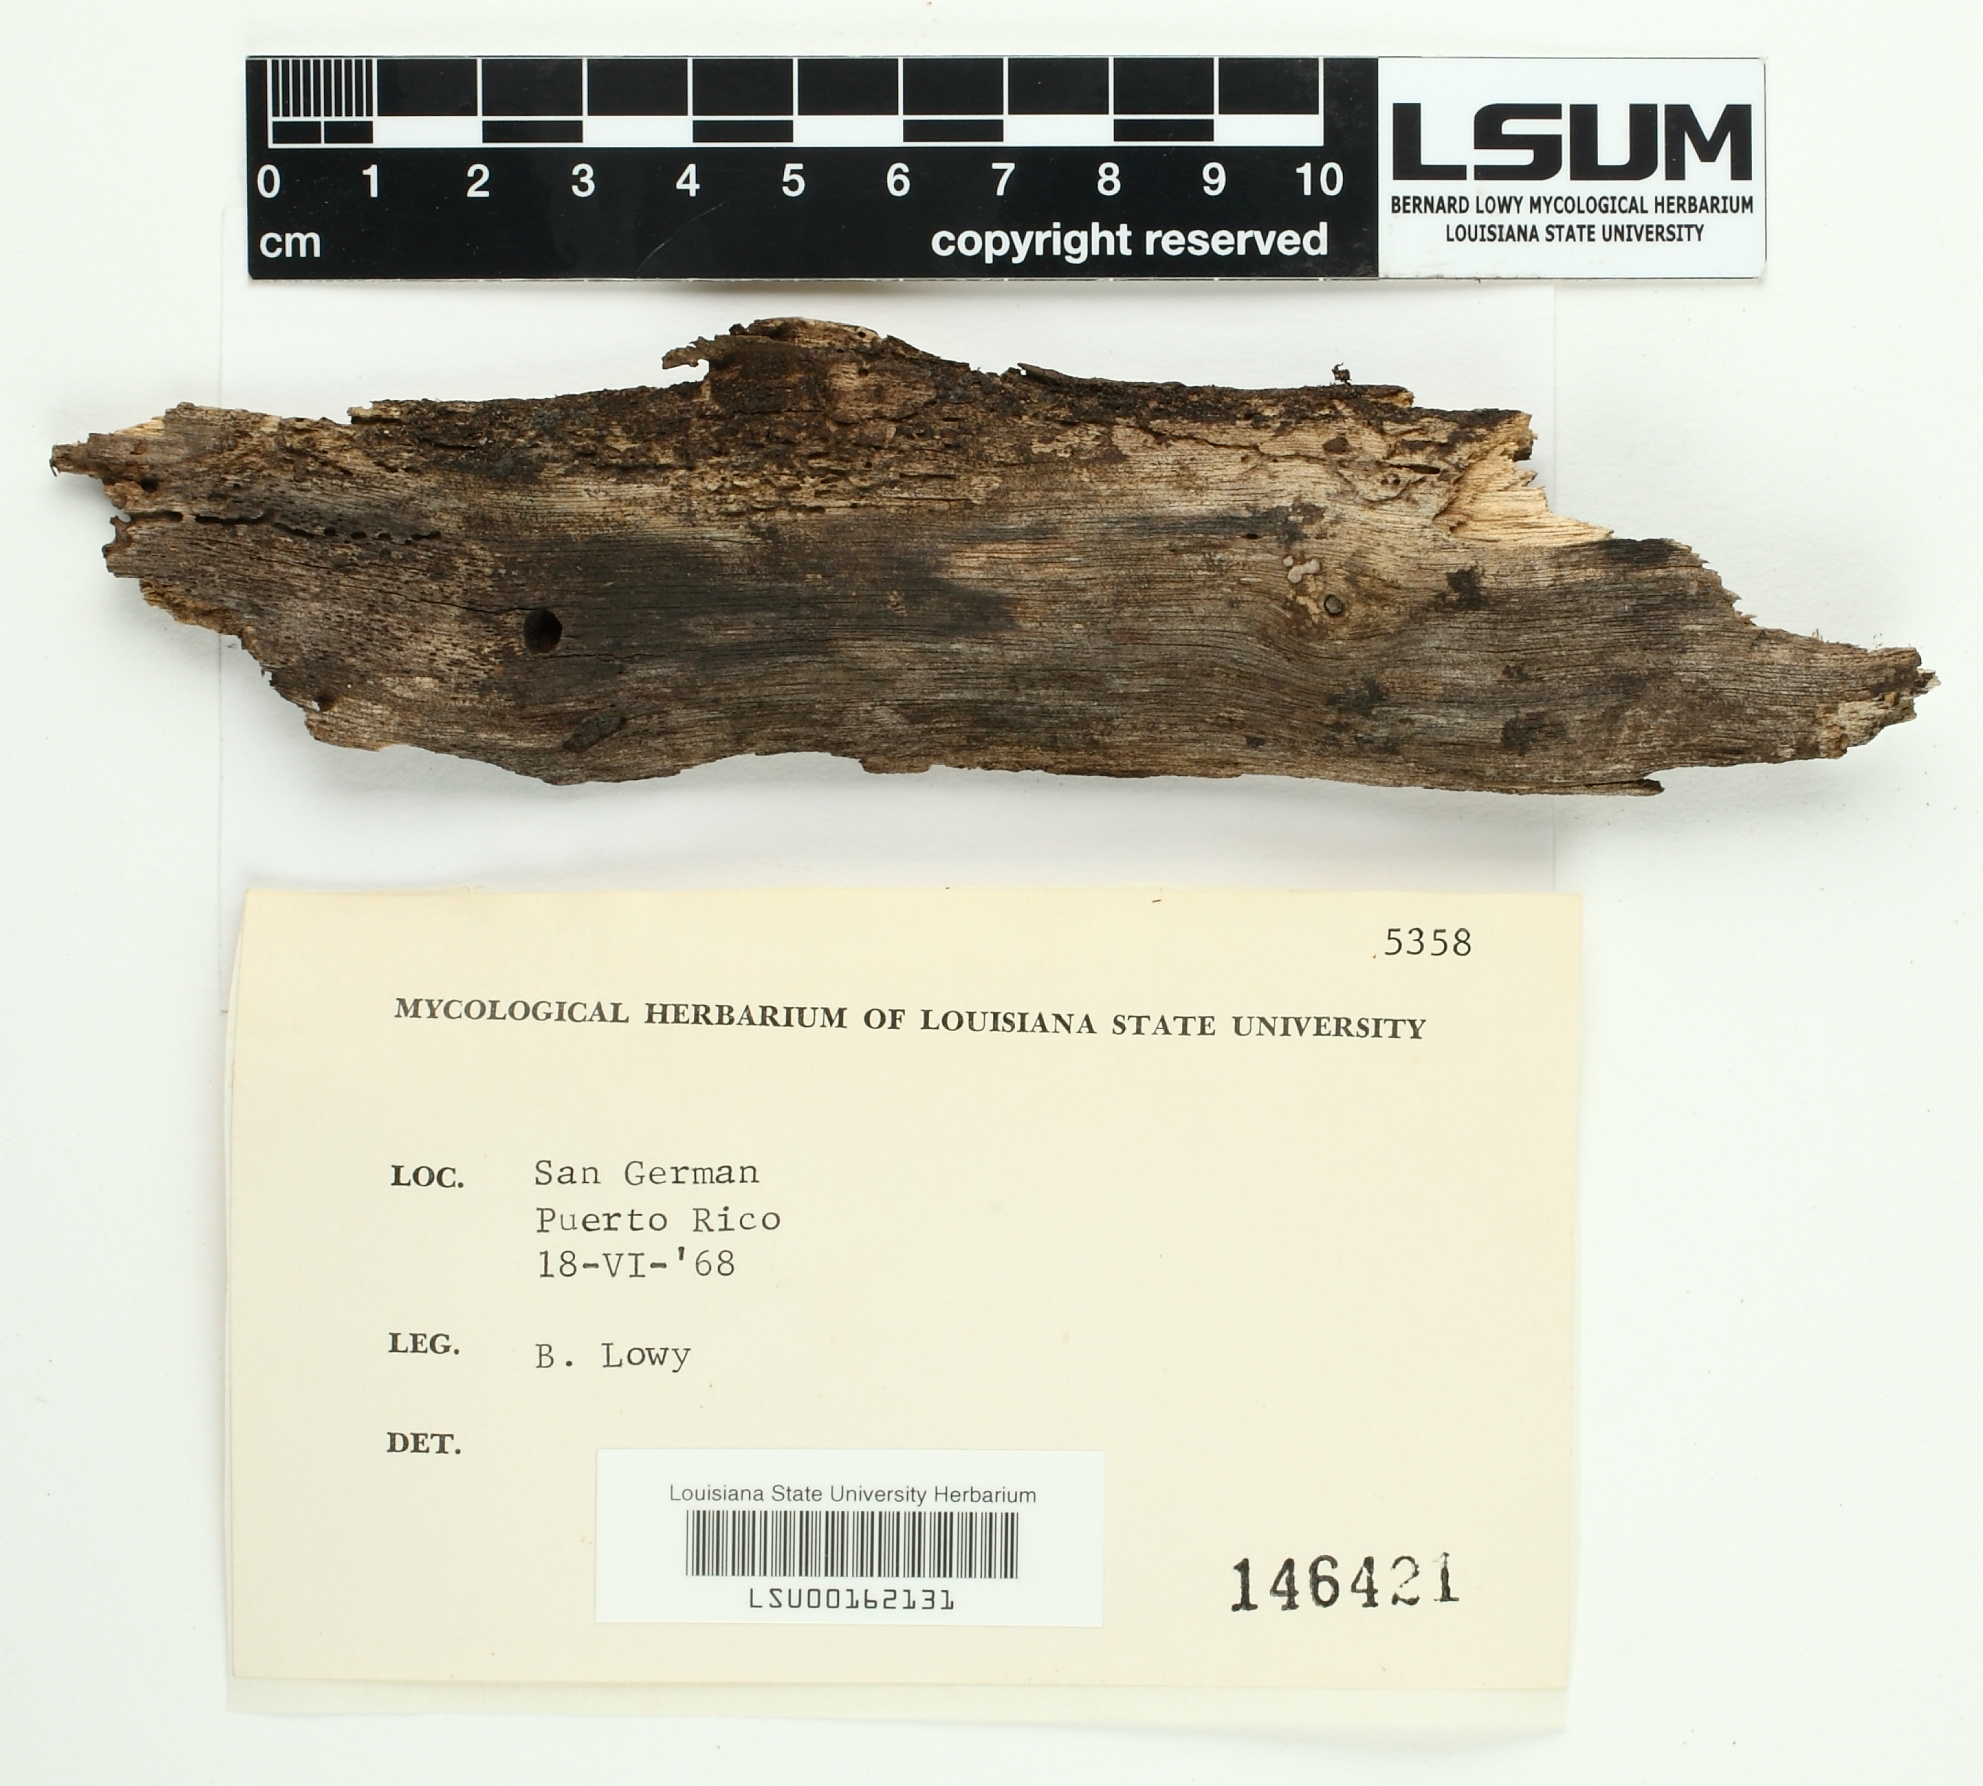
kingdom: Fungi
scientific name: Fungi
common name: Fungi
